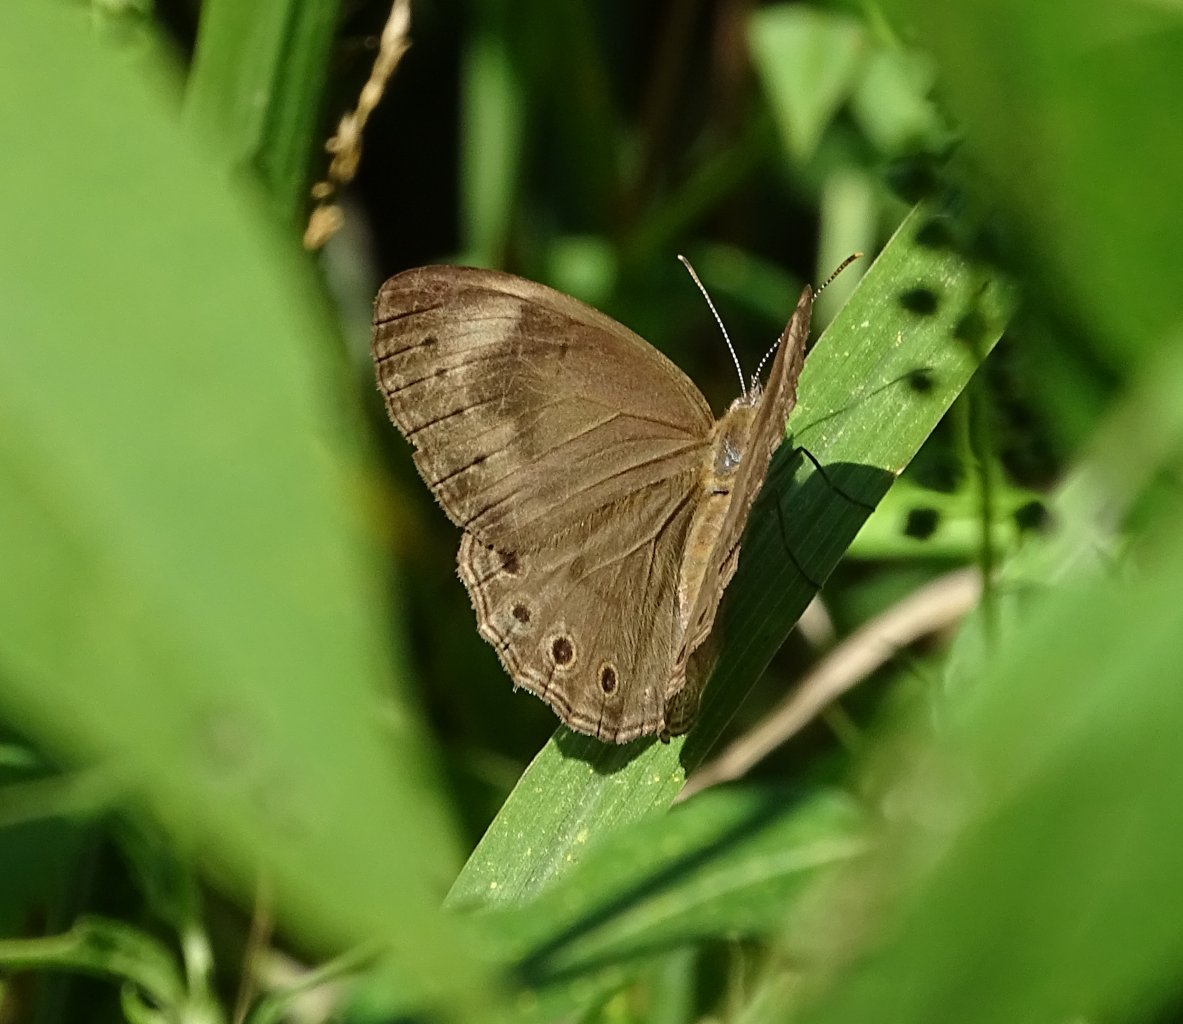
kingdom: Animalia
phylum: Arthropoda
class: Insecta
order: Lepidoptera
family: Nymphalidae
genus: Lethe
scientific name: Lethe eurydice
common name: Appalachian Eyed Brown
